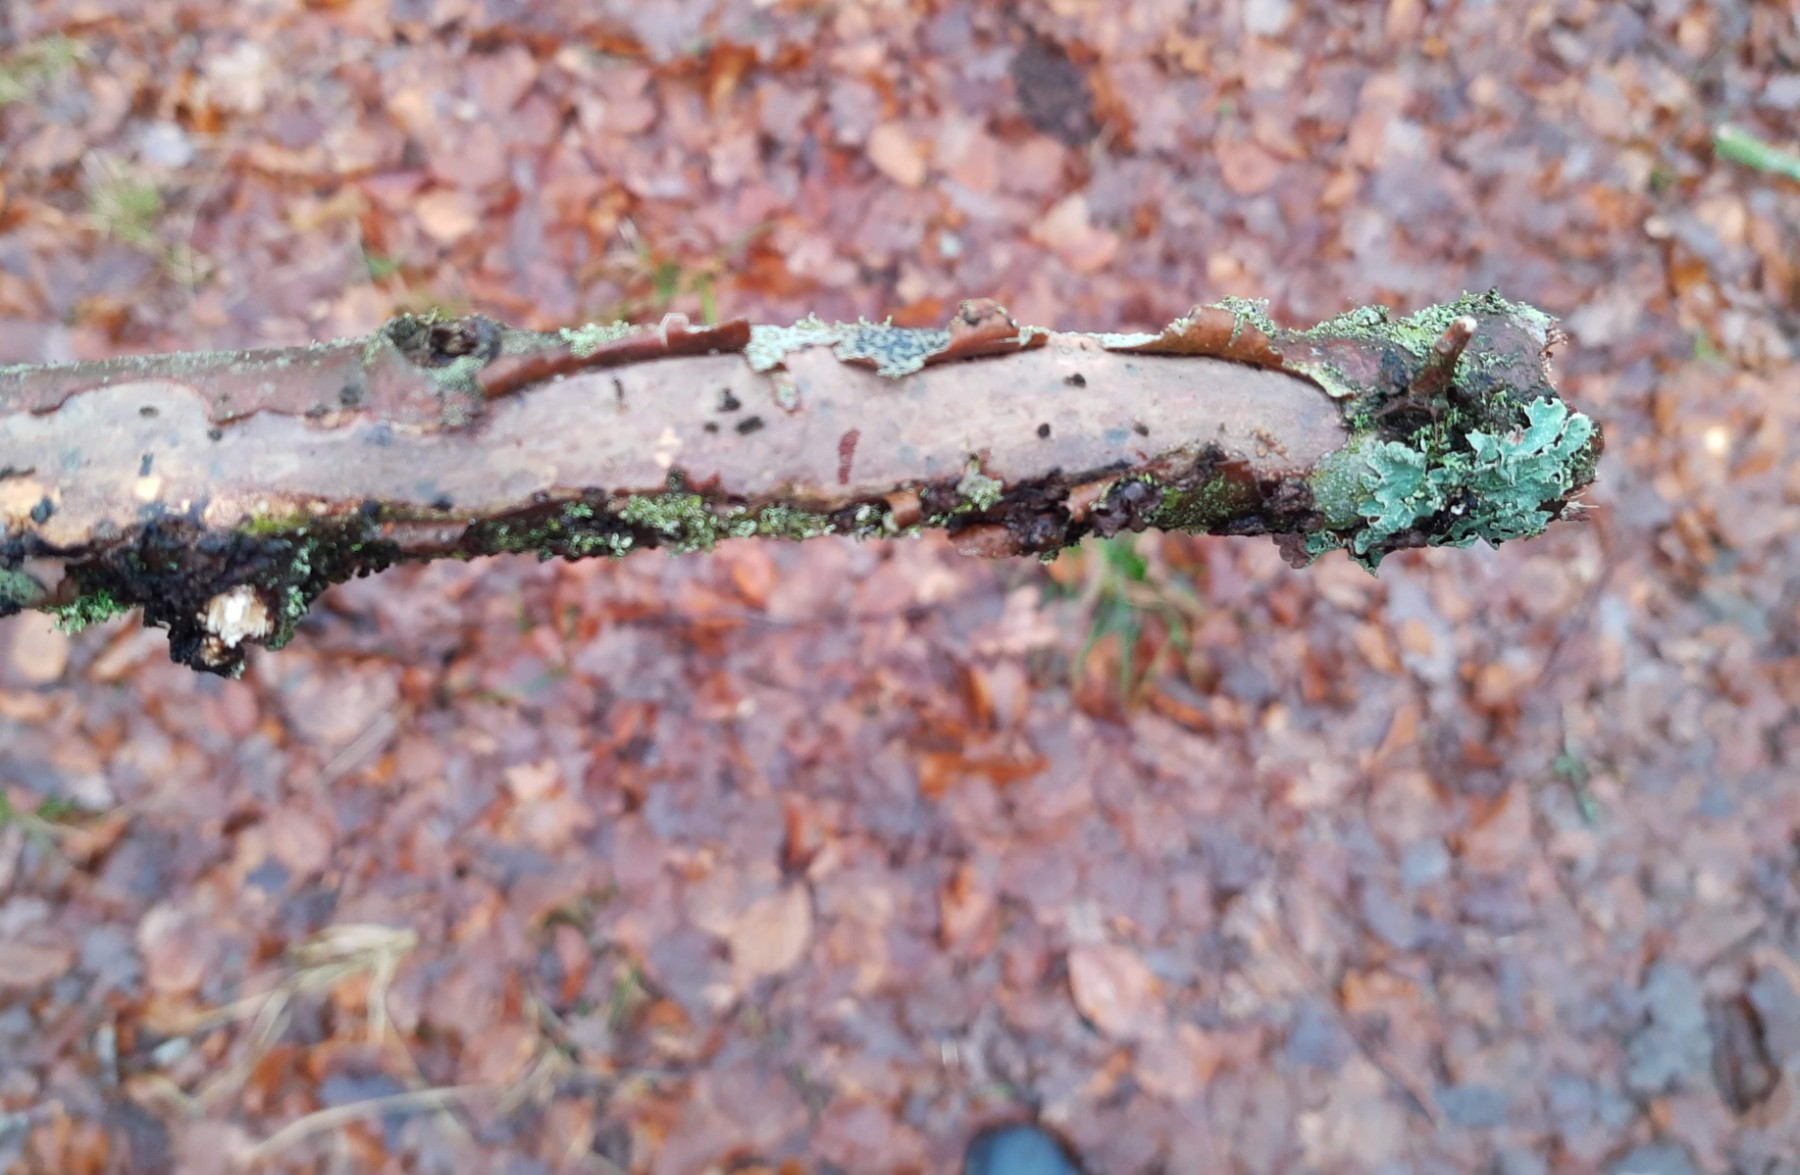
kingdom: Fungi
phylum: Basidiomycota
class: Agaricomycetes
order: Corticiales
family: Vuilleminiaceae
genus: Vuilleminia
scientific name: Vuilleminia comedens
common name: almindelig barksprænger
